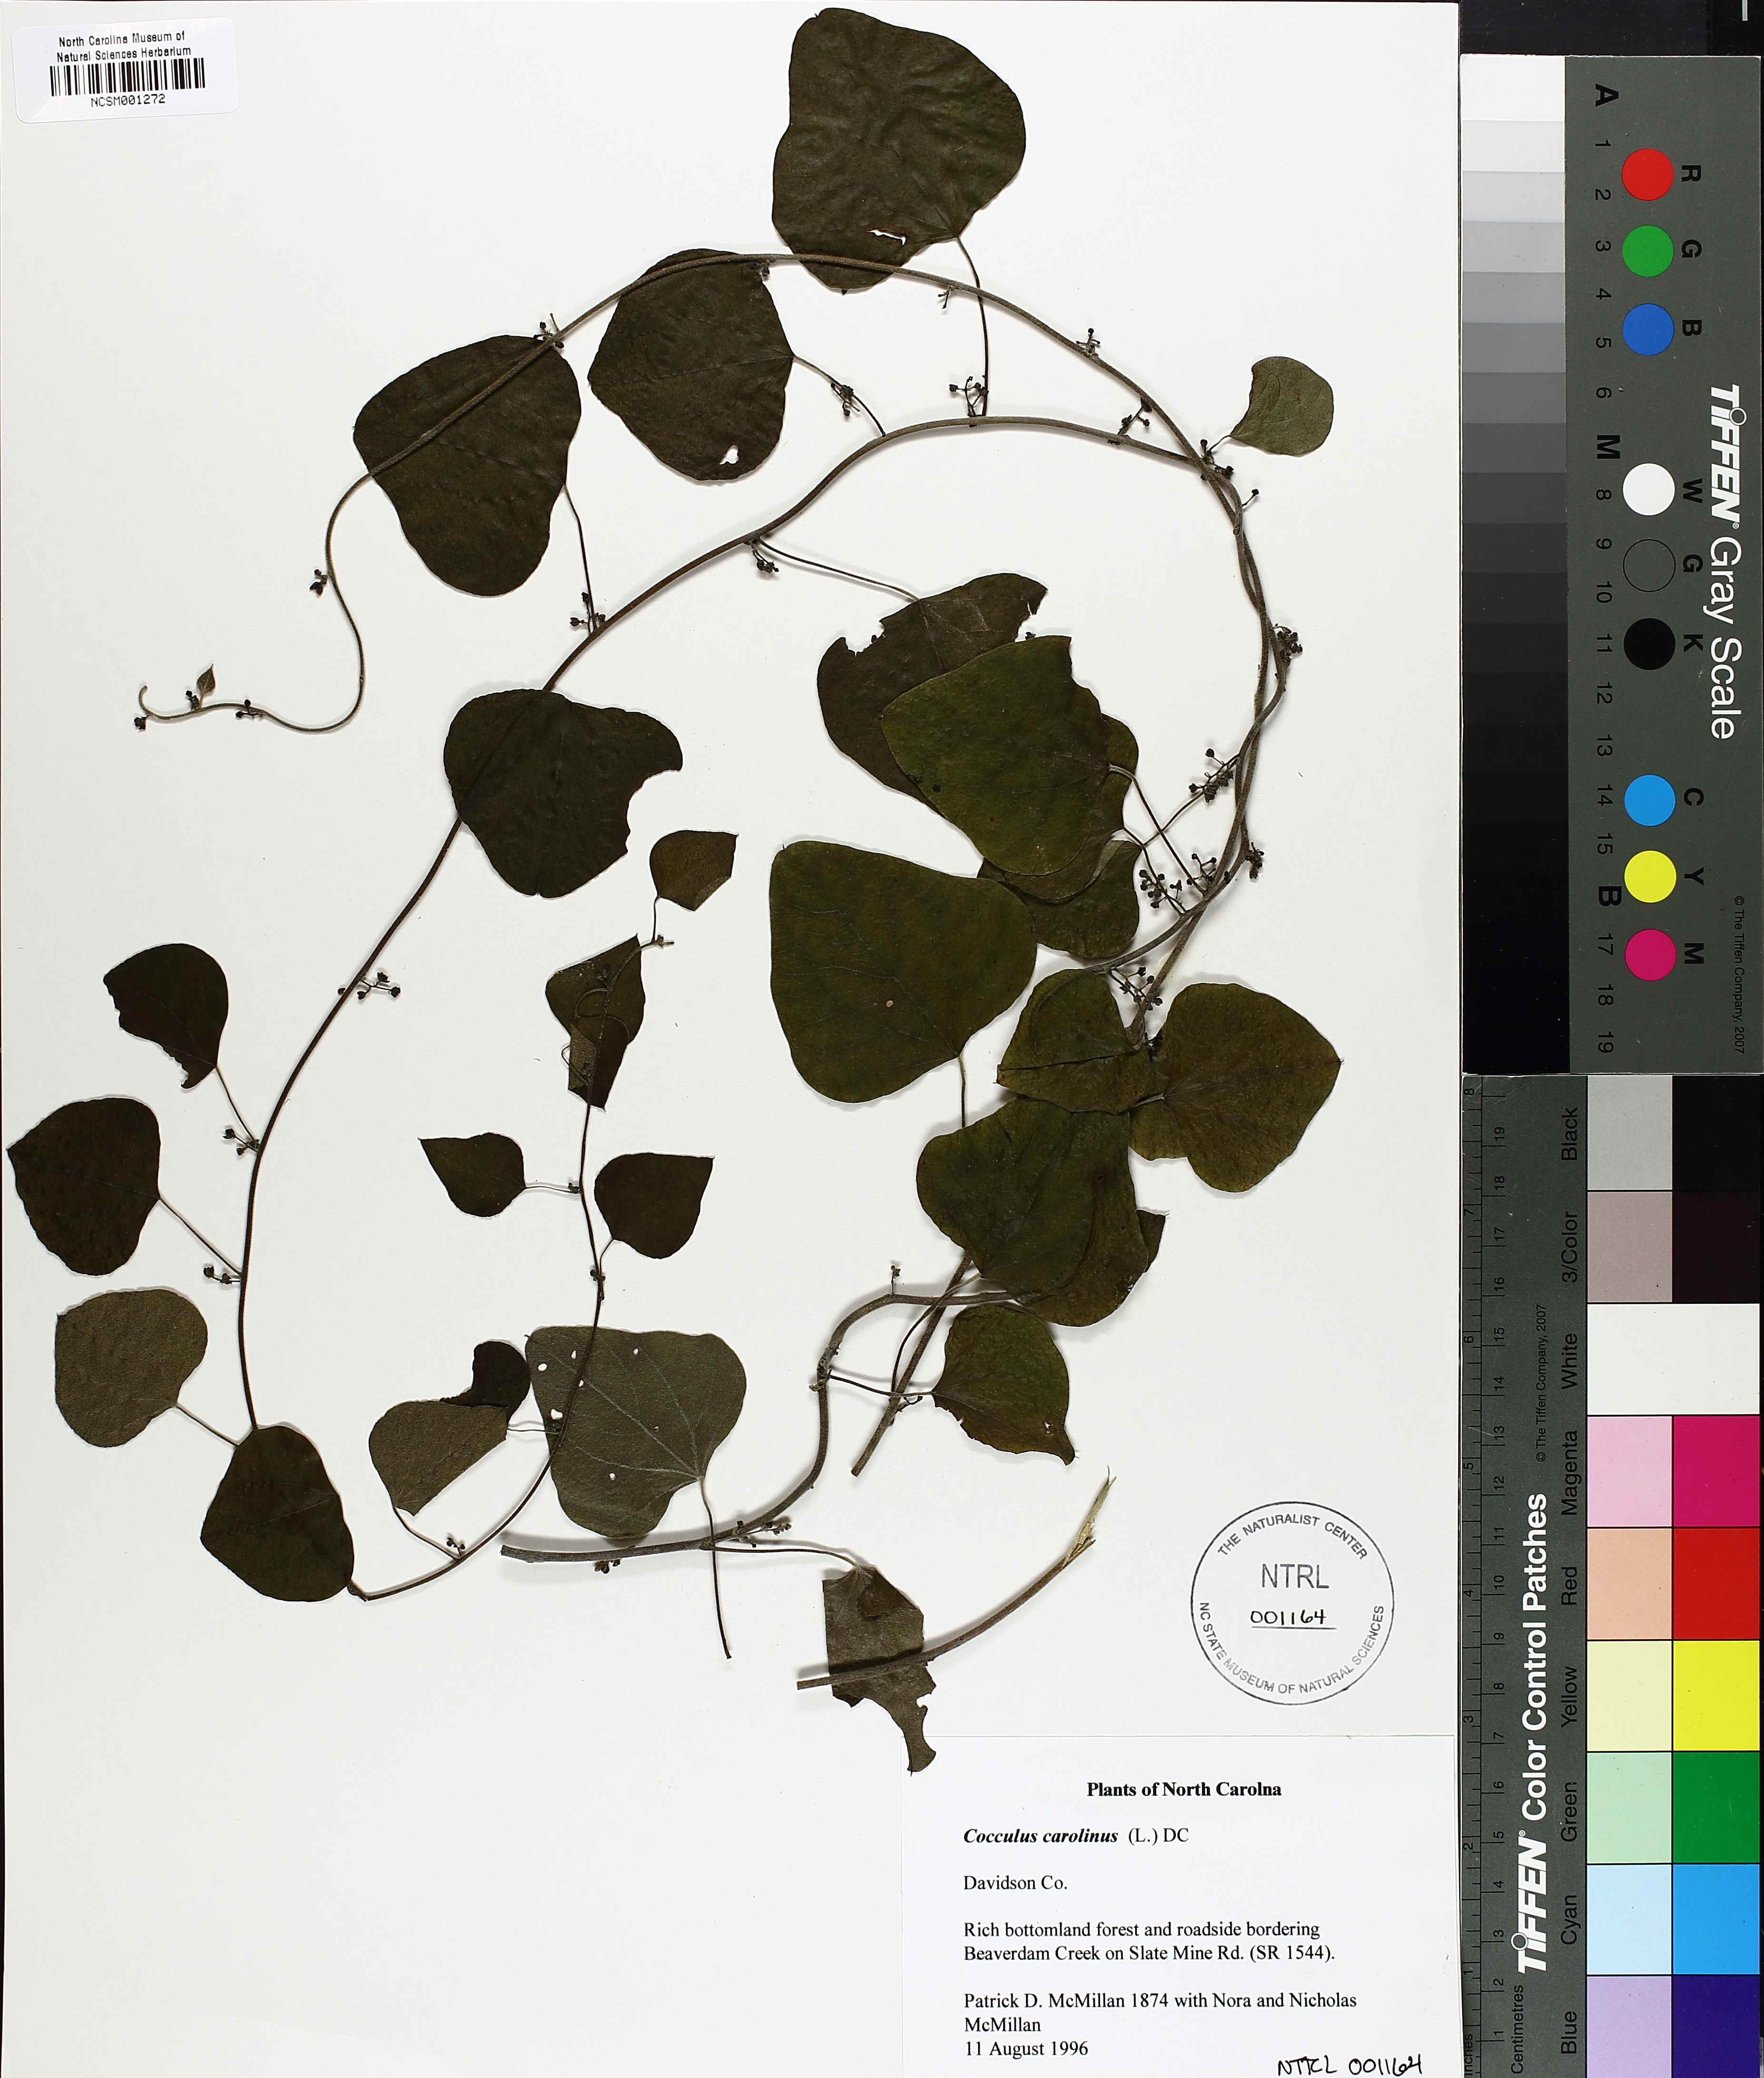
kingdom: Plantae
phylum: Tracheophyta
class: Magnoliopsida
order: Ranunculales
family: Menispermaceae
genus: Cocculus
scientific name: Cocculus carolinus
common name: Carolina moonseed
